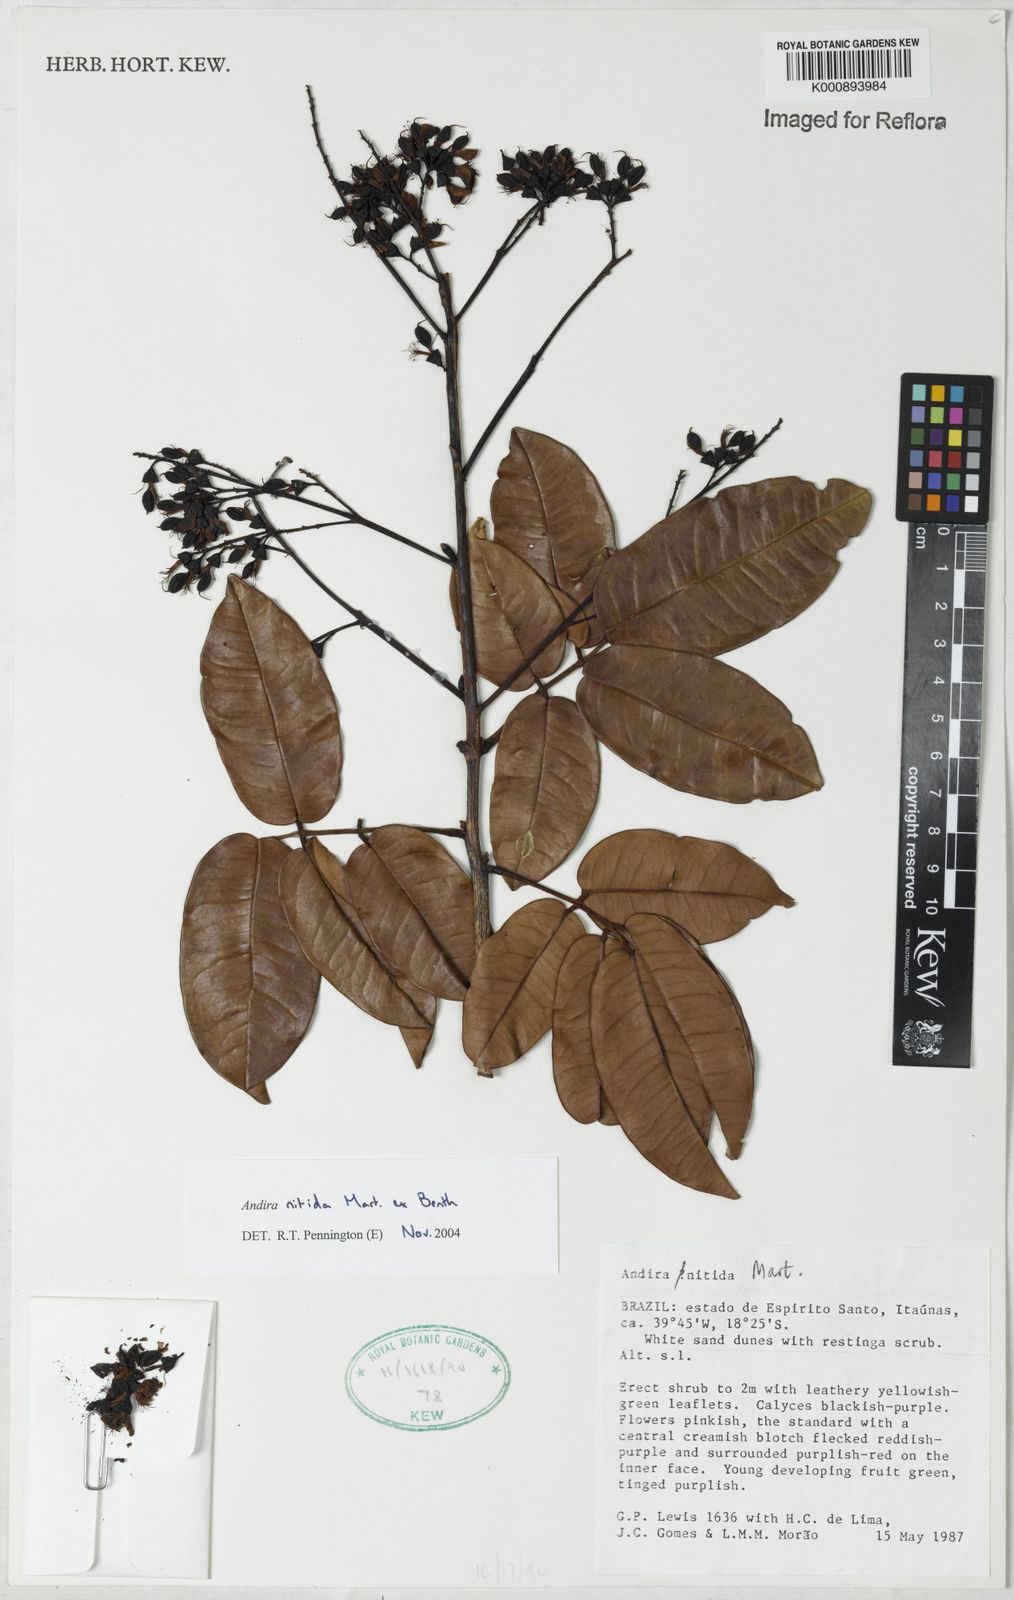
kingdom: Plantae
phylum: Tracheophyta
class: Magnoliopsida
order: Fabales
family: Fabaceae
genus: Andira
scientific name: Andira nitida
